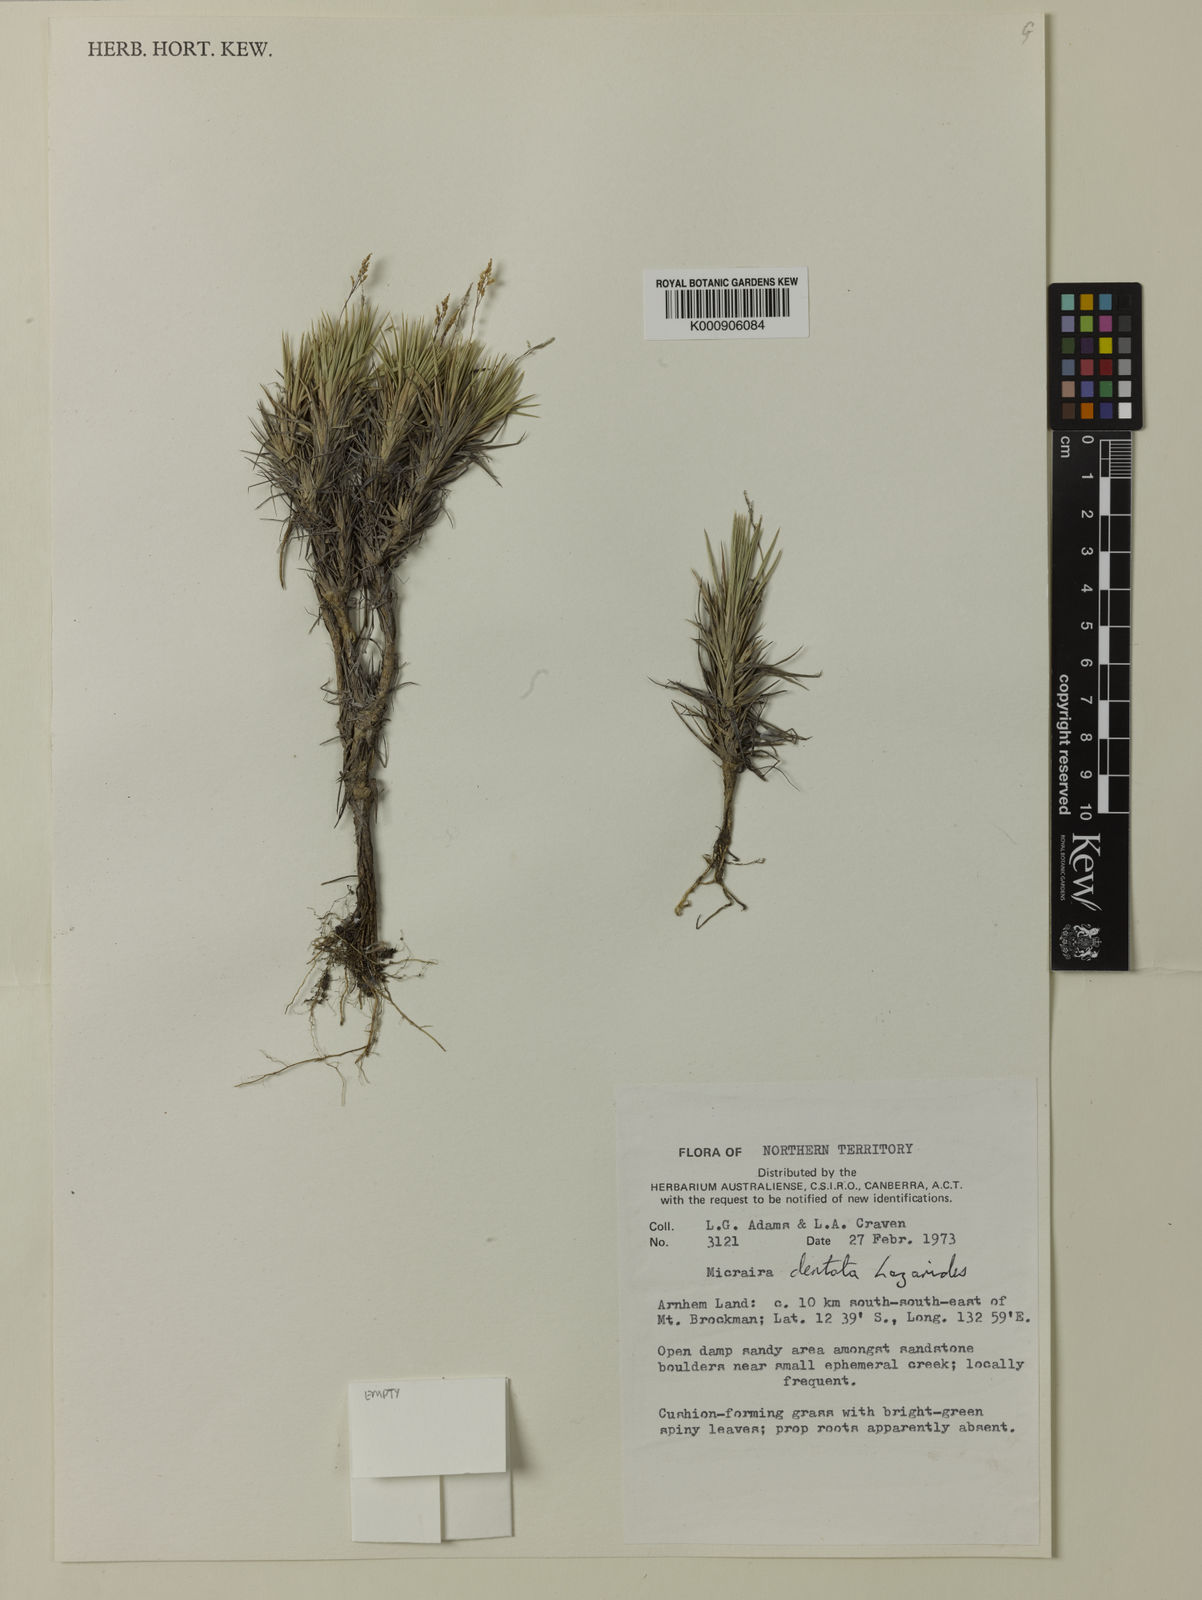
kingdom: Plantae
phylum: Tracheophyta
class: Liliopsida
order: Poales
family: Poaceae
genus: Micraira
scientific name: Micraira dentata
